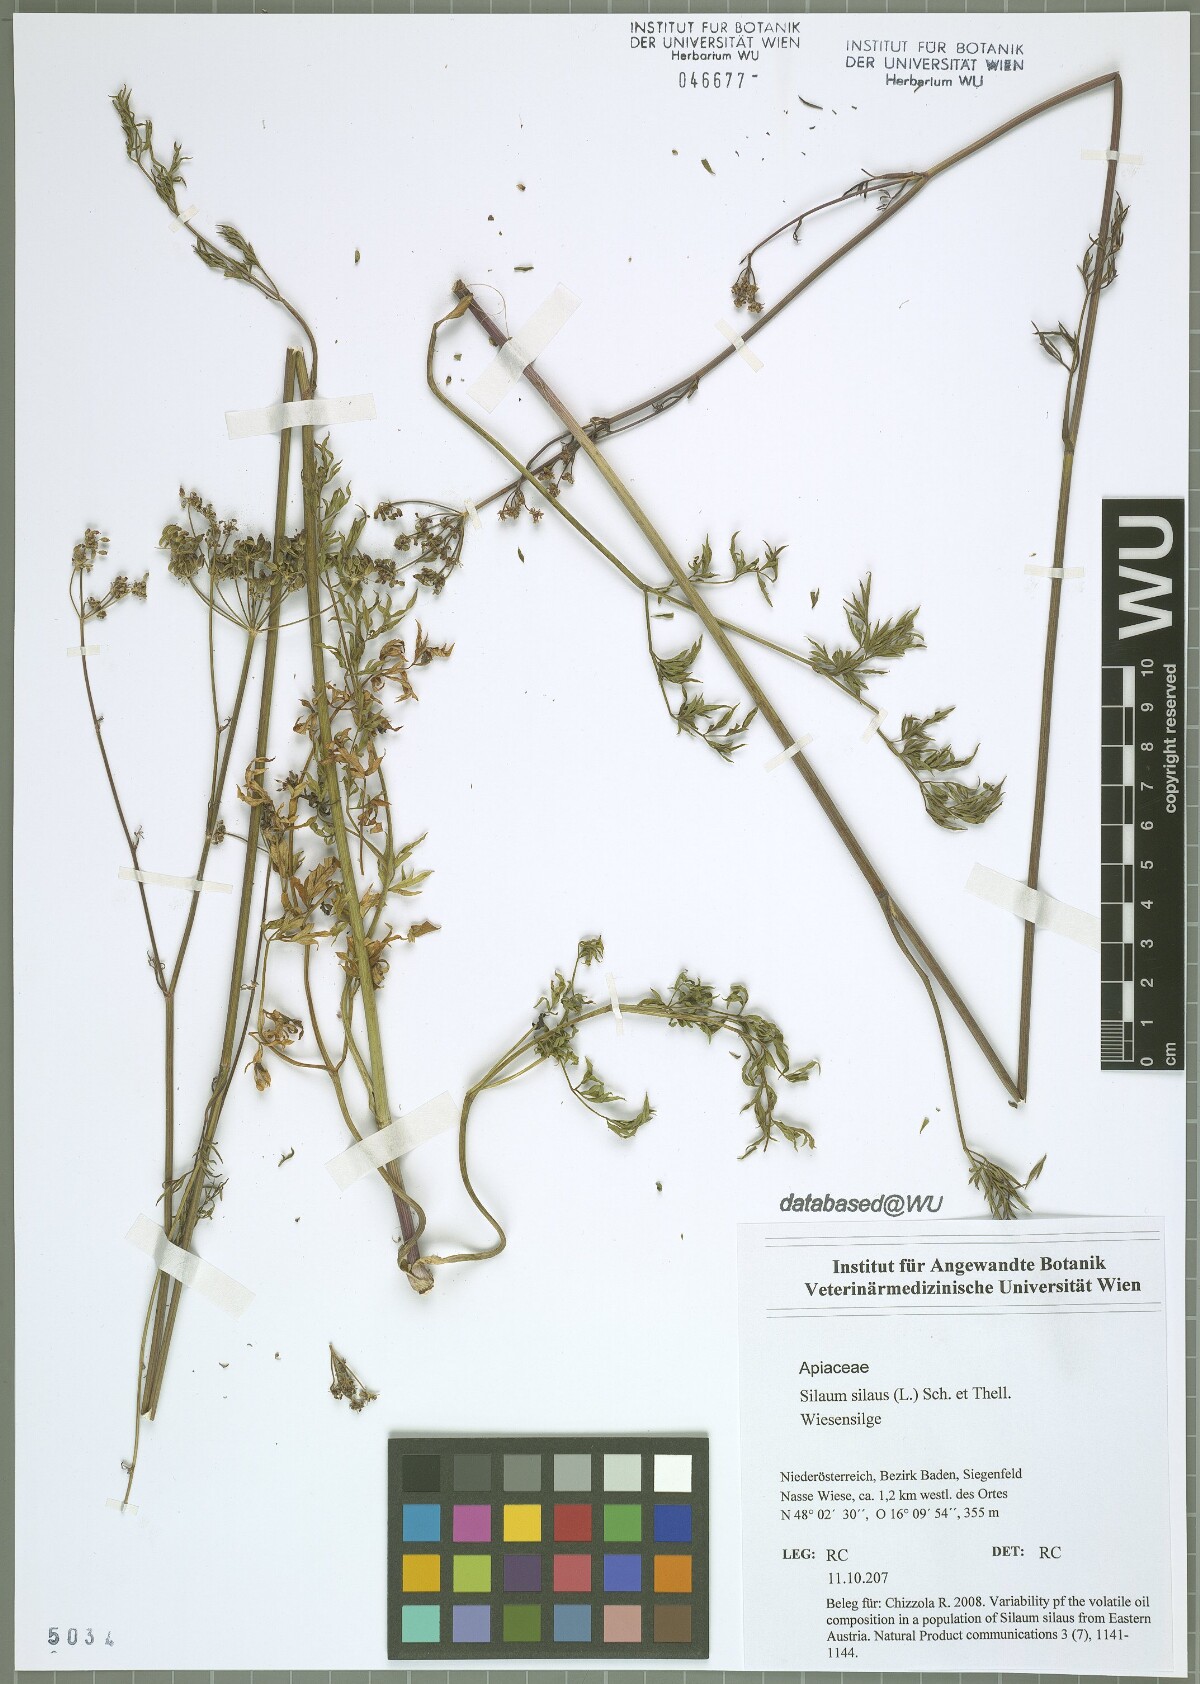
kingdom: Plantae
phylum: Tracheophyta
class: Magnoliopsida
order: Apiales
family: Apiaceae
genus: Silaum
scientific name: Silaum silaus
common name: Pepper-saxifrage
